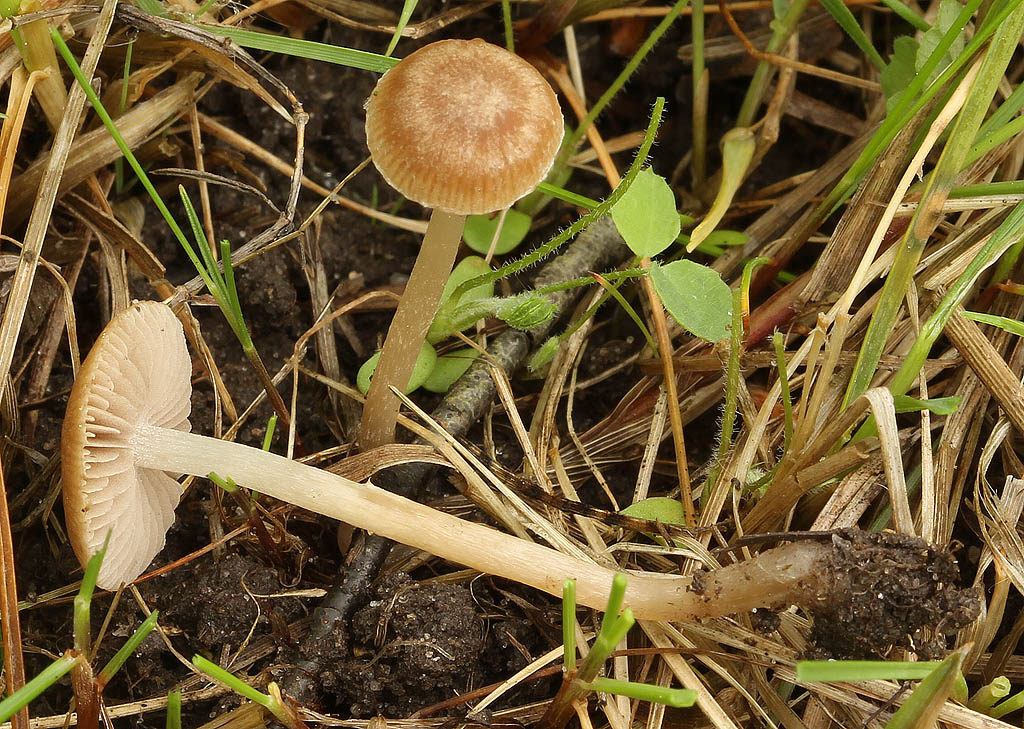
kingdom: Fungi
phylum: Basidiomycota
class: Agaricomycetes
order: Agaricales
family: Psathyrellaceae
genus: Psathyrella
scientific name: Psathyrella panaeoloides
